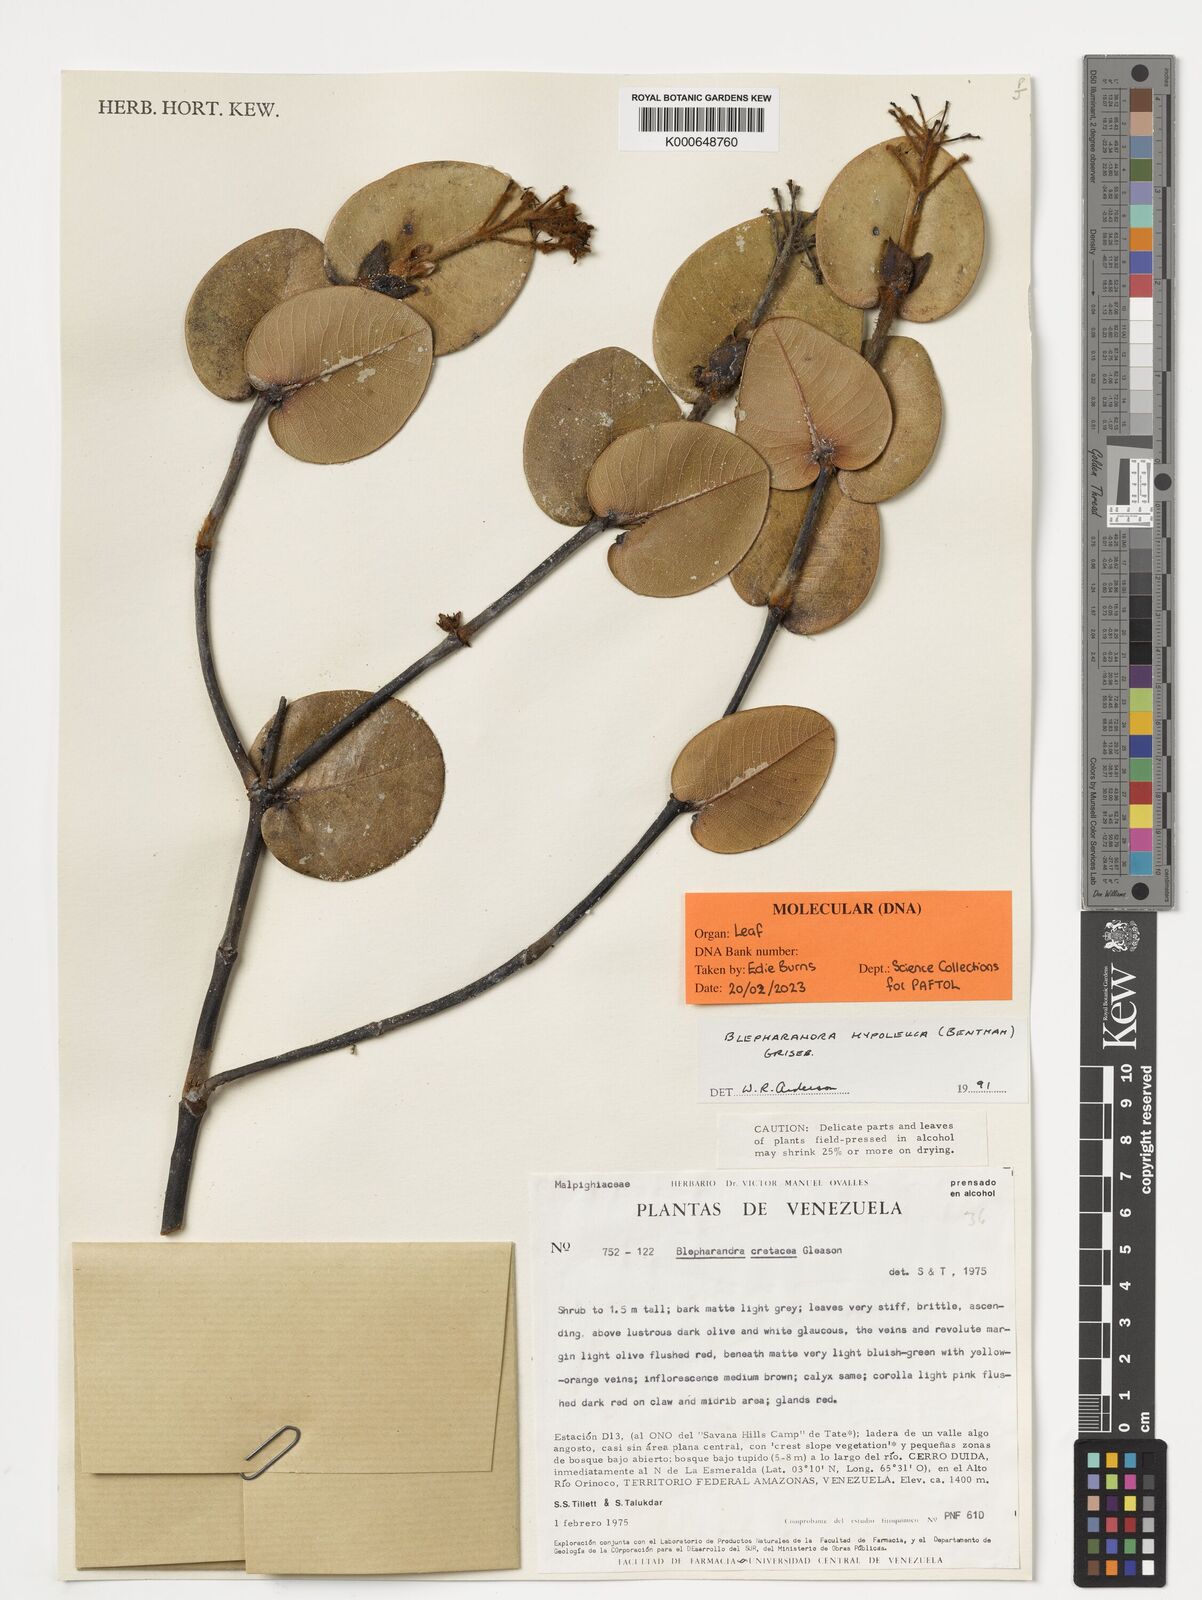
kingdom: Plantae
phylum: Tracheophyta
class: Magnoliopsida
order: Malpighiales
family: Malpighiaceae
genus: Blepharandra
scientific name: Blepharandra hypoleuca
